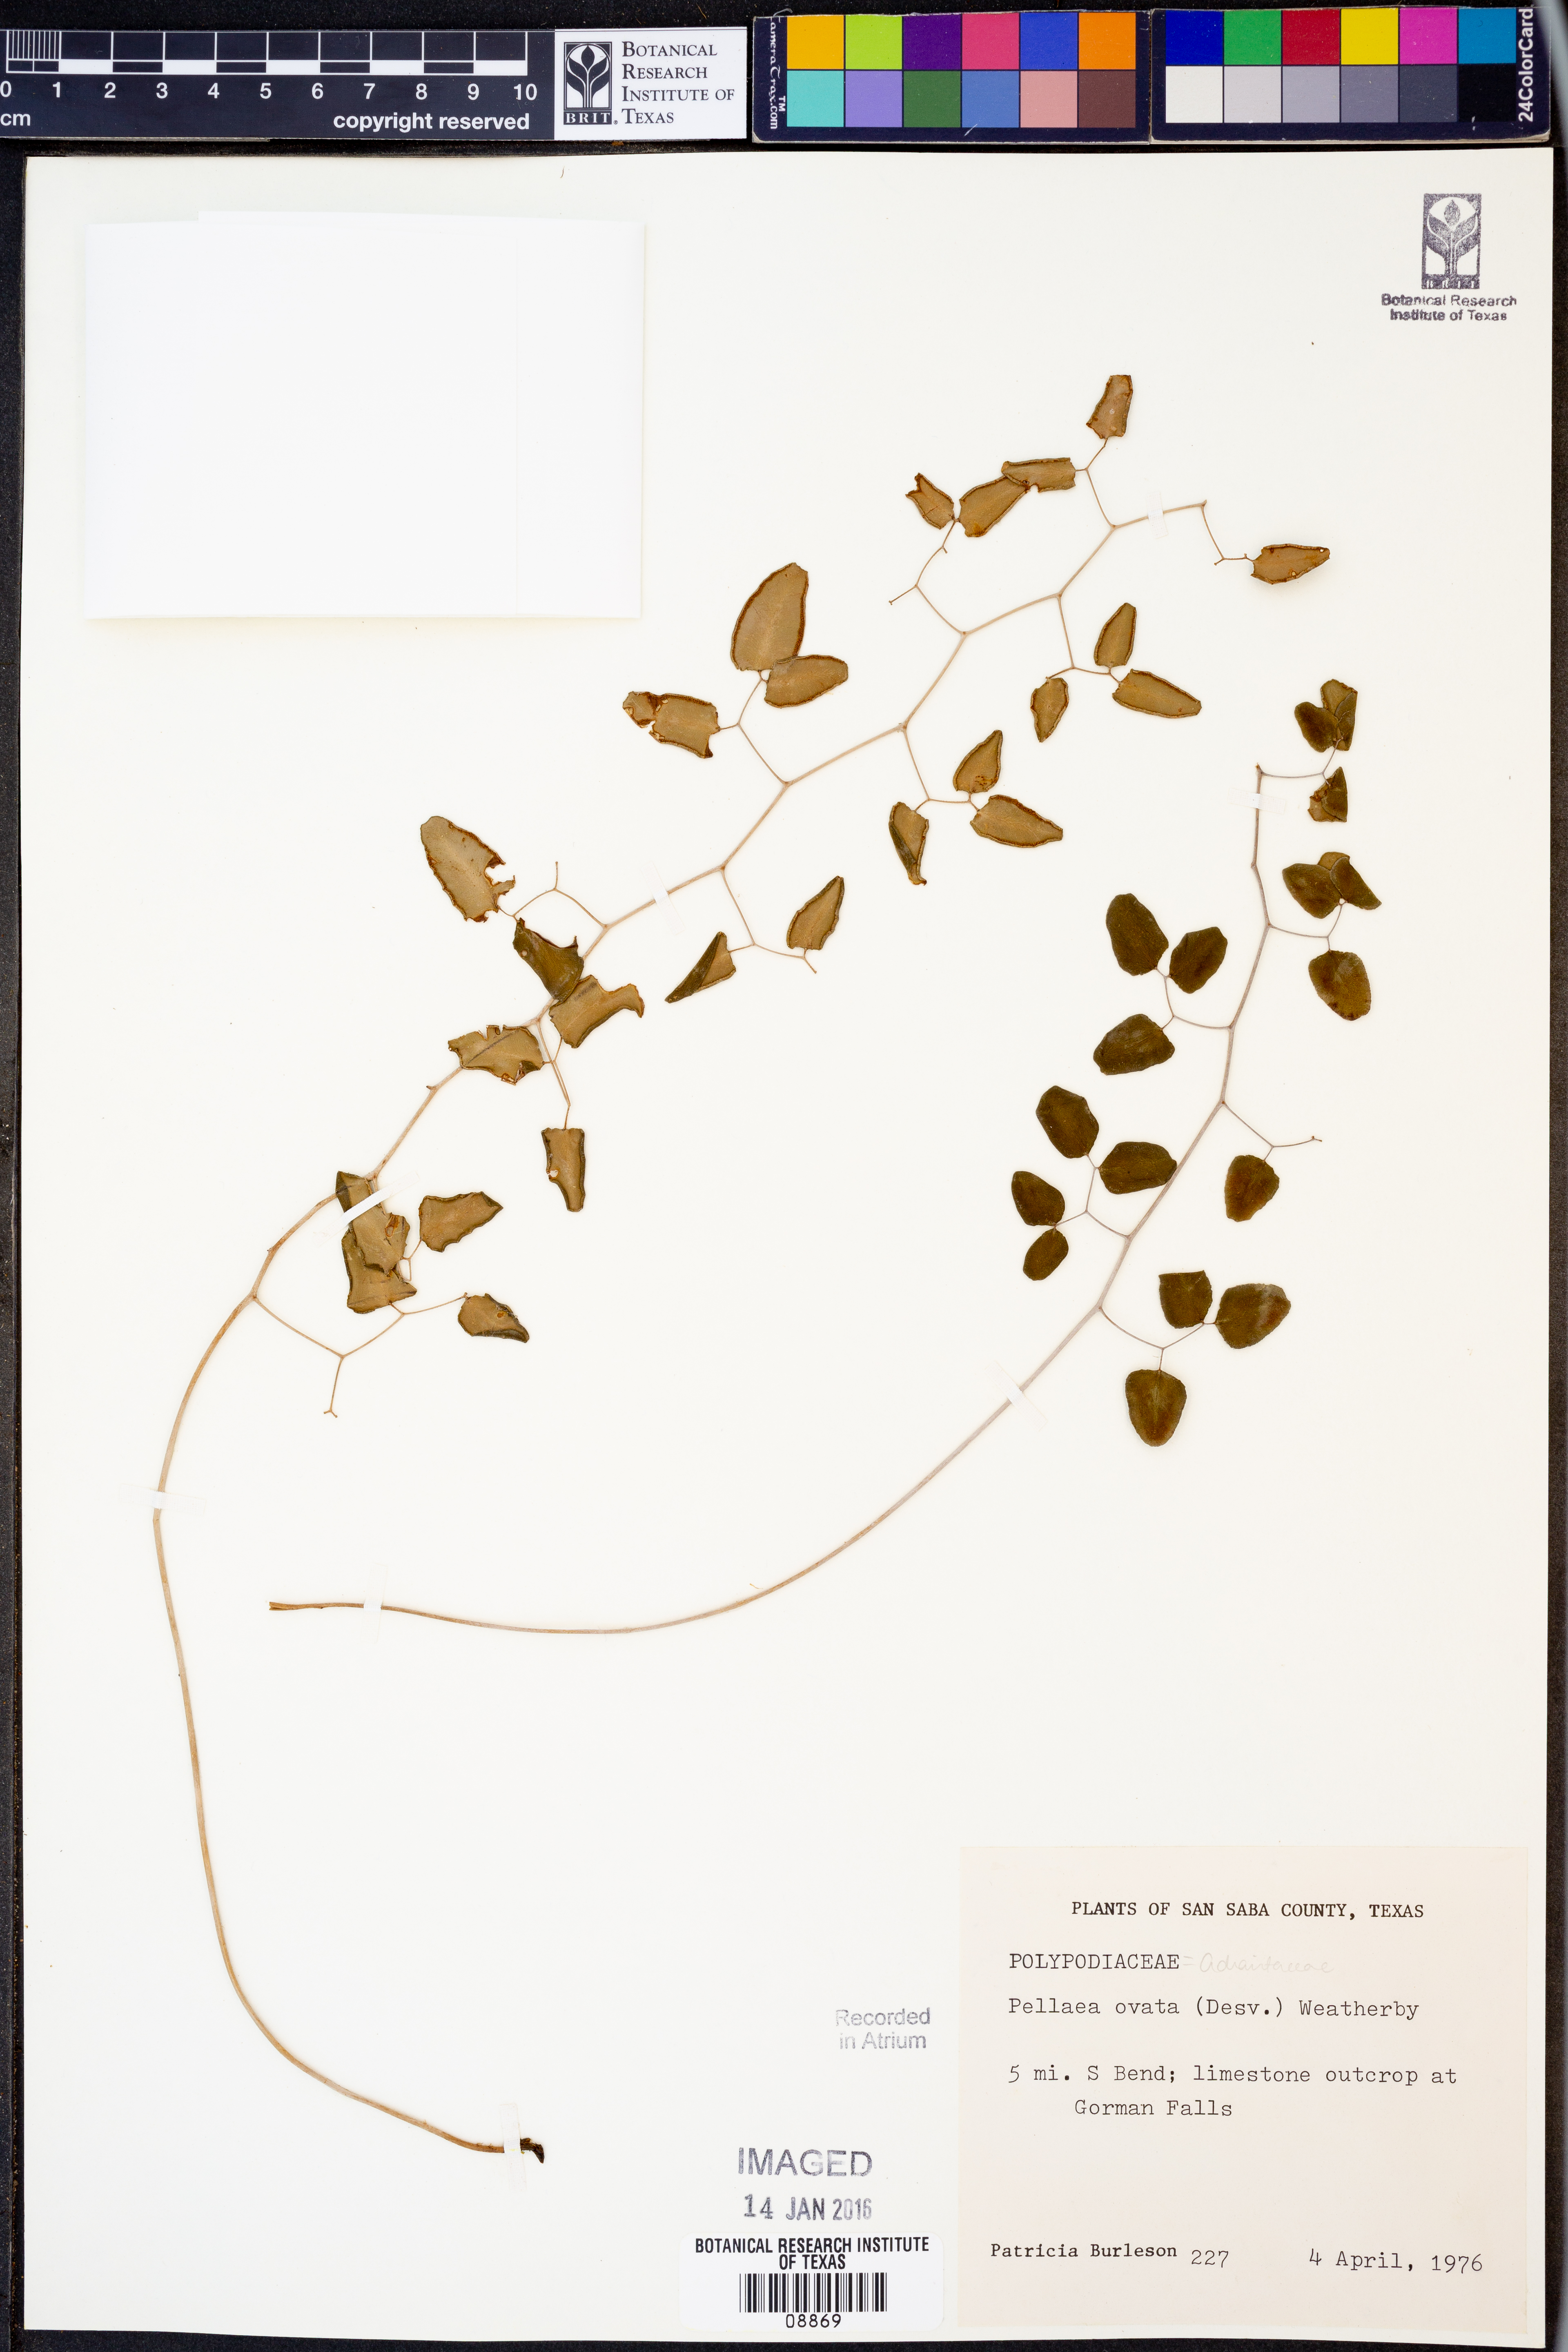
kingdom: Plantae
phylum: Tracheophyta
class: Polypodiopsida
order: Polypodiales
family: Pteridaceae
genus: Pellaea
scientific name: Pellaea ovata
